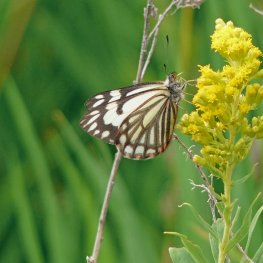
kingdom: Animalia
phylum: Arthropoda
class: Insecta
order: Lepidoptera
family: Pieridae
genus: Neophasia
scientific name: Neophasia menapia
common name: Pine White
